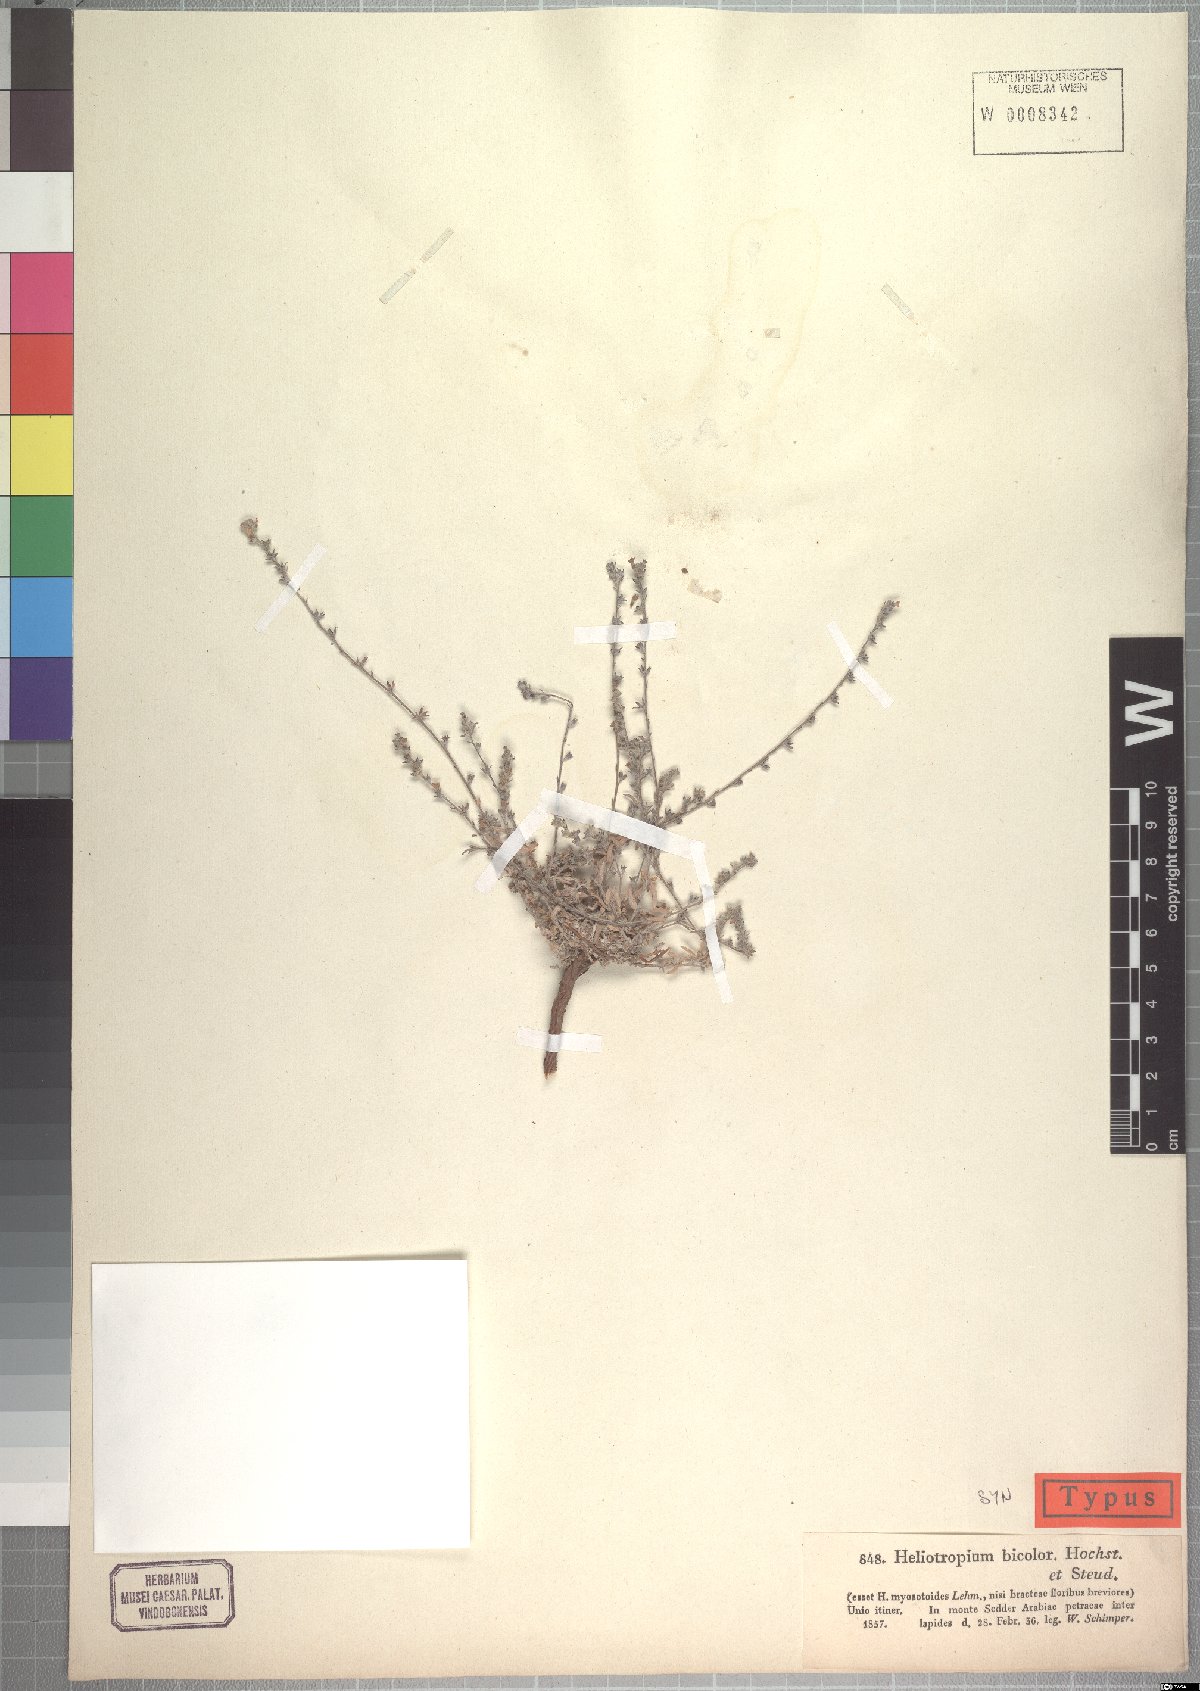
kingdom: Plantae
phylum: Tracheophyta
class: Magnoliopsida
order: Boraginales
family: Heliotropiaceae
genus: Euploca
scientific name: Euploca strigosa
